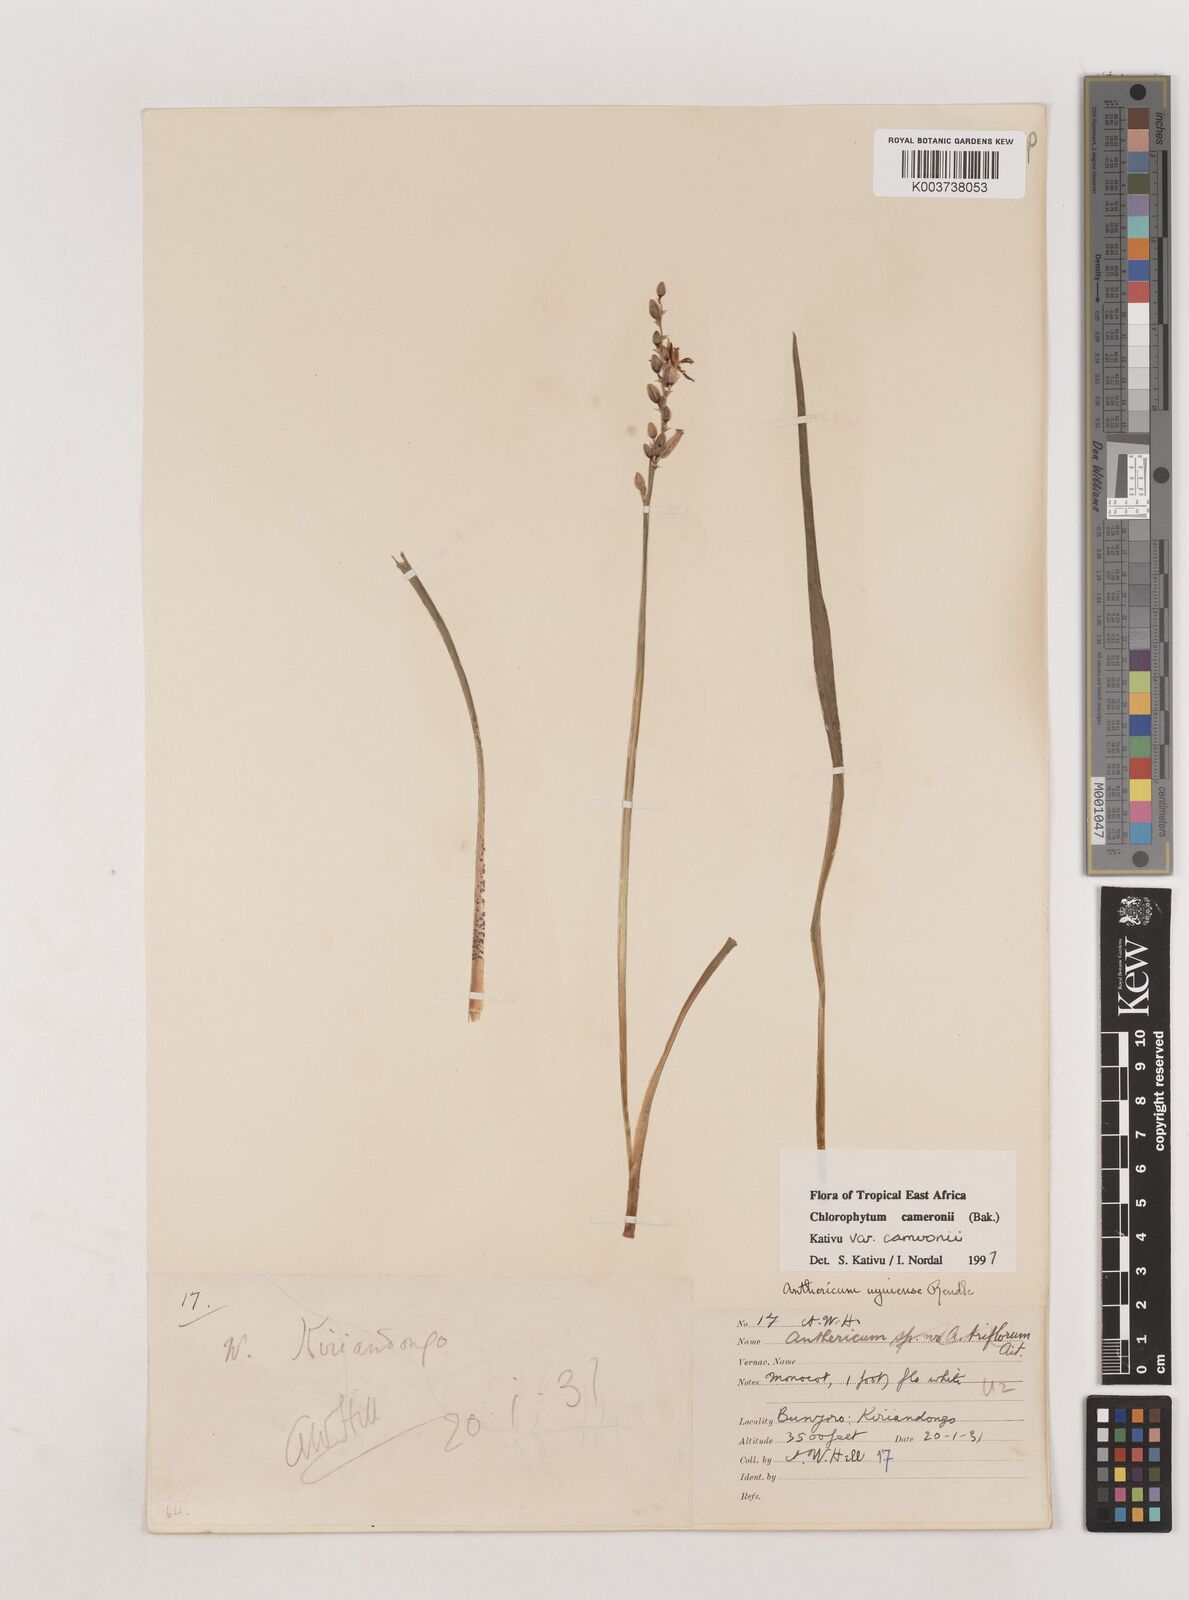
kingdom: Plantae
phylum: Tracheophyta
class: Liliopsida
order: Asparagales
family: Asparagaceae
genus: Chlorophytum
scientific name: Chlorophytum cameronii
